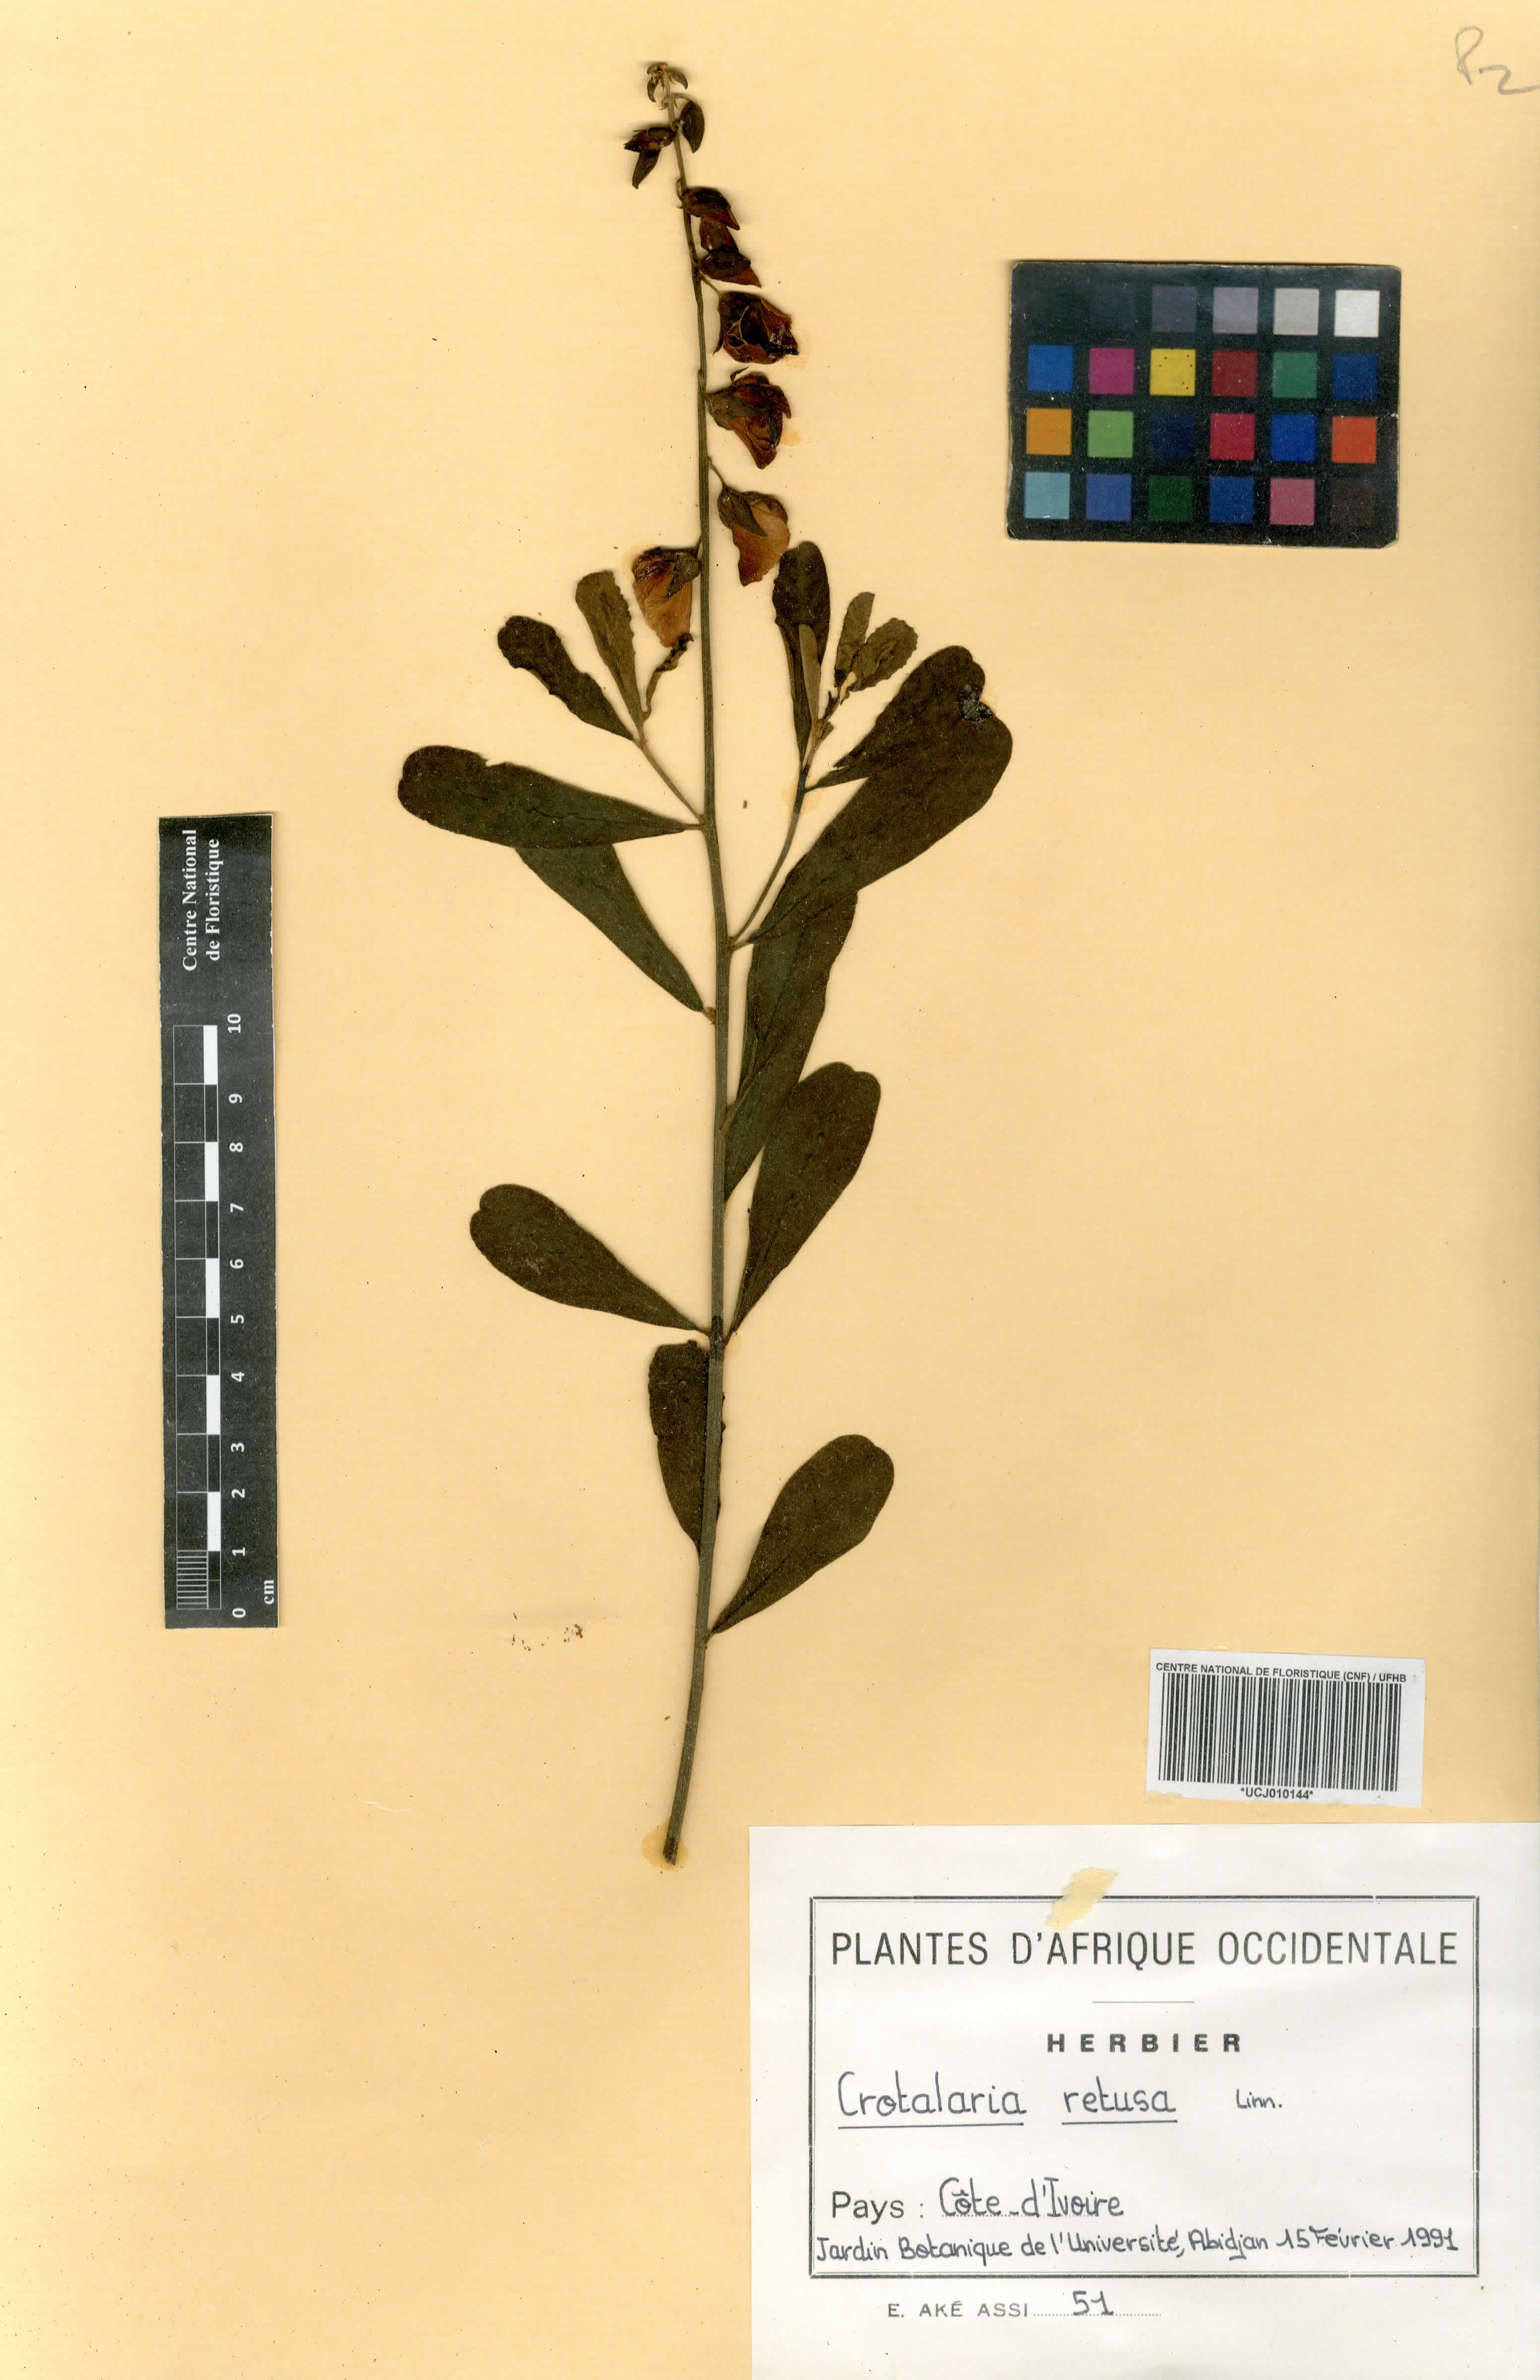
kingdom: Plantae
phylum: Tracheophyta
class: Magnoliopsida
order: Fabales
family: Fabaceae
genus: Crotalaria
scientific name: Crotalaria retusa
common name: Rattleweed
